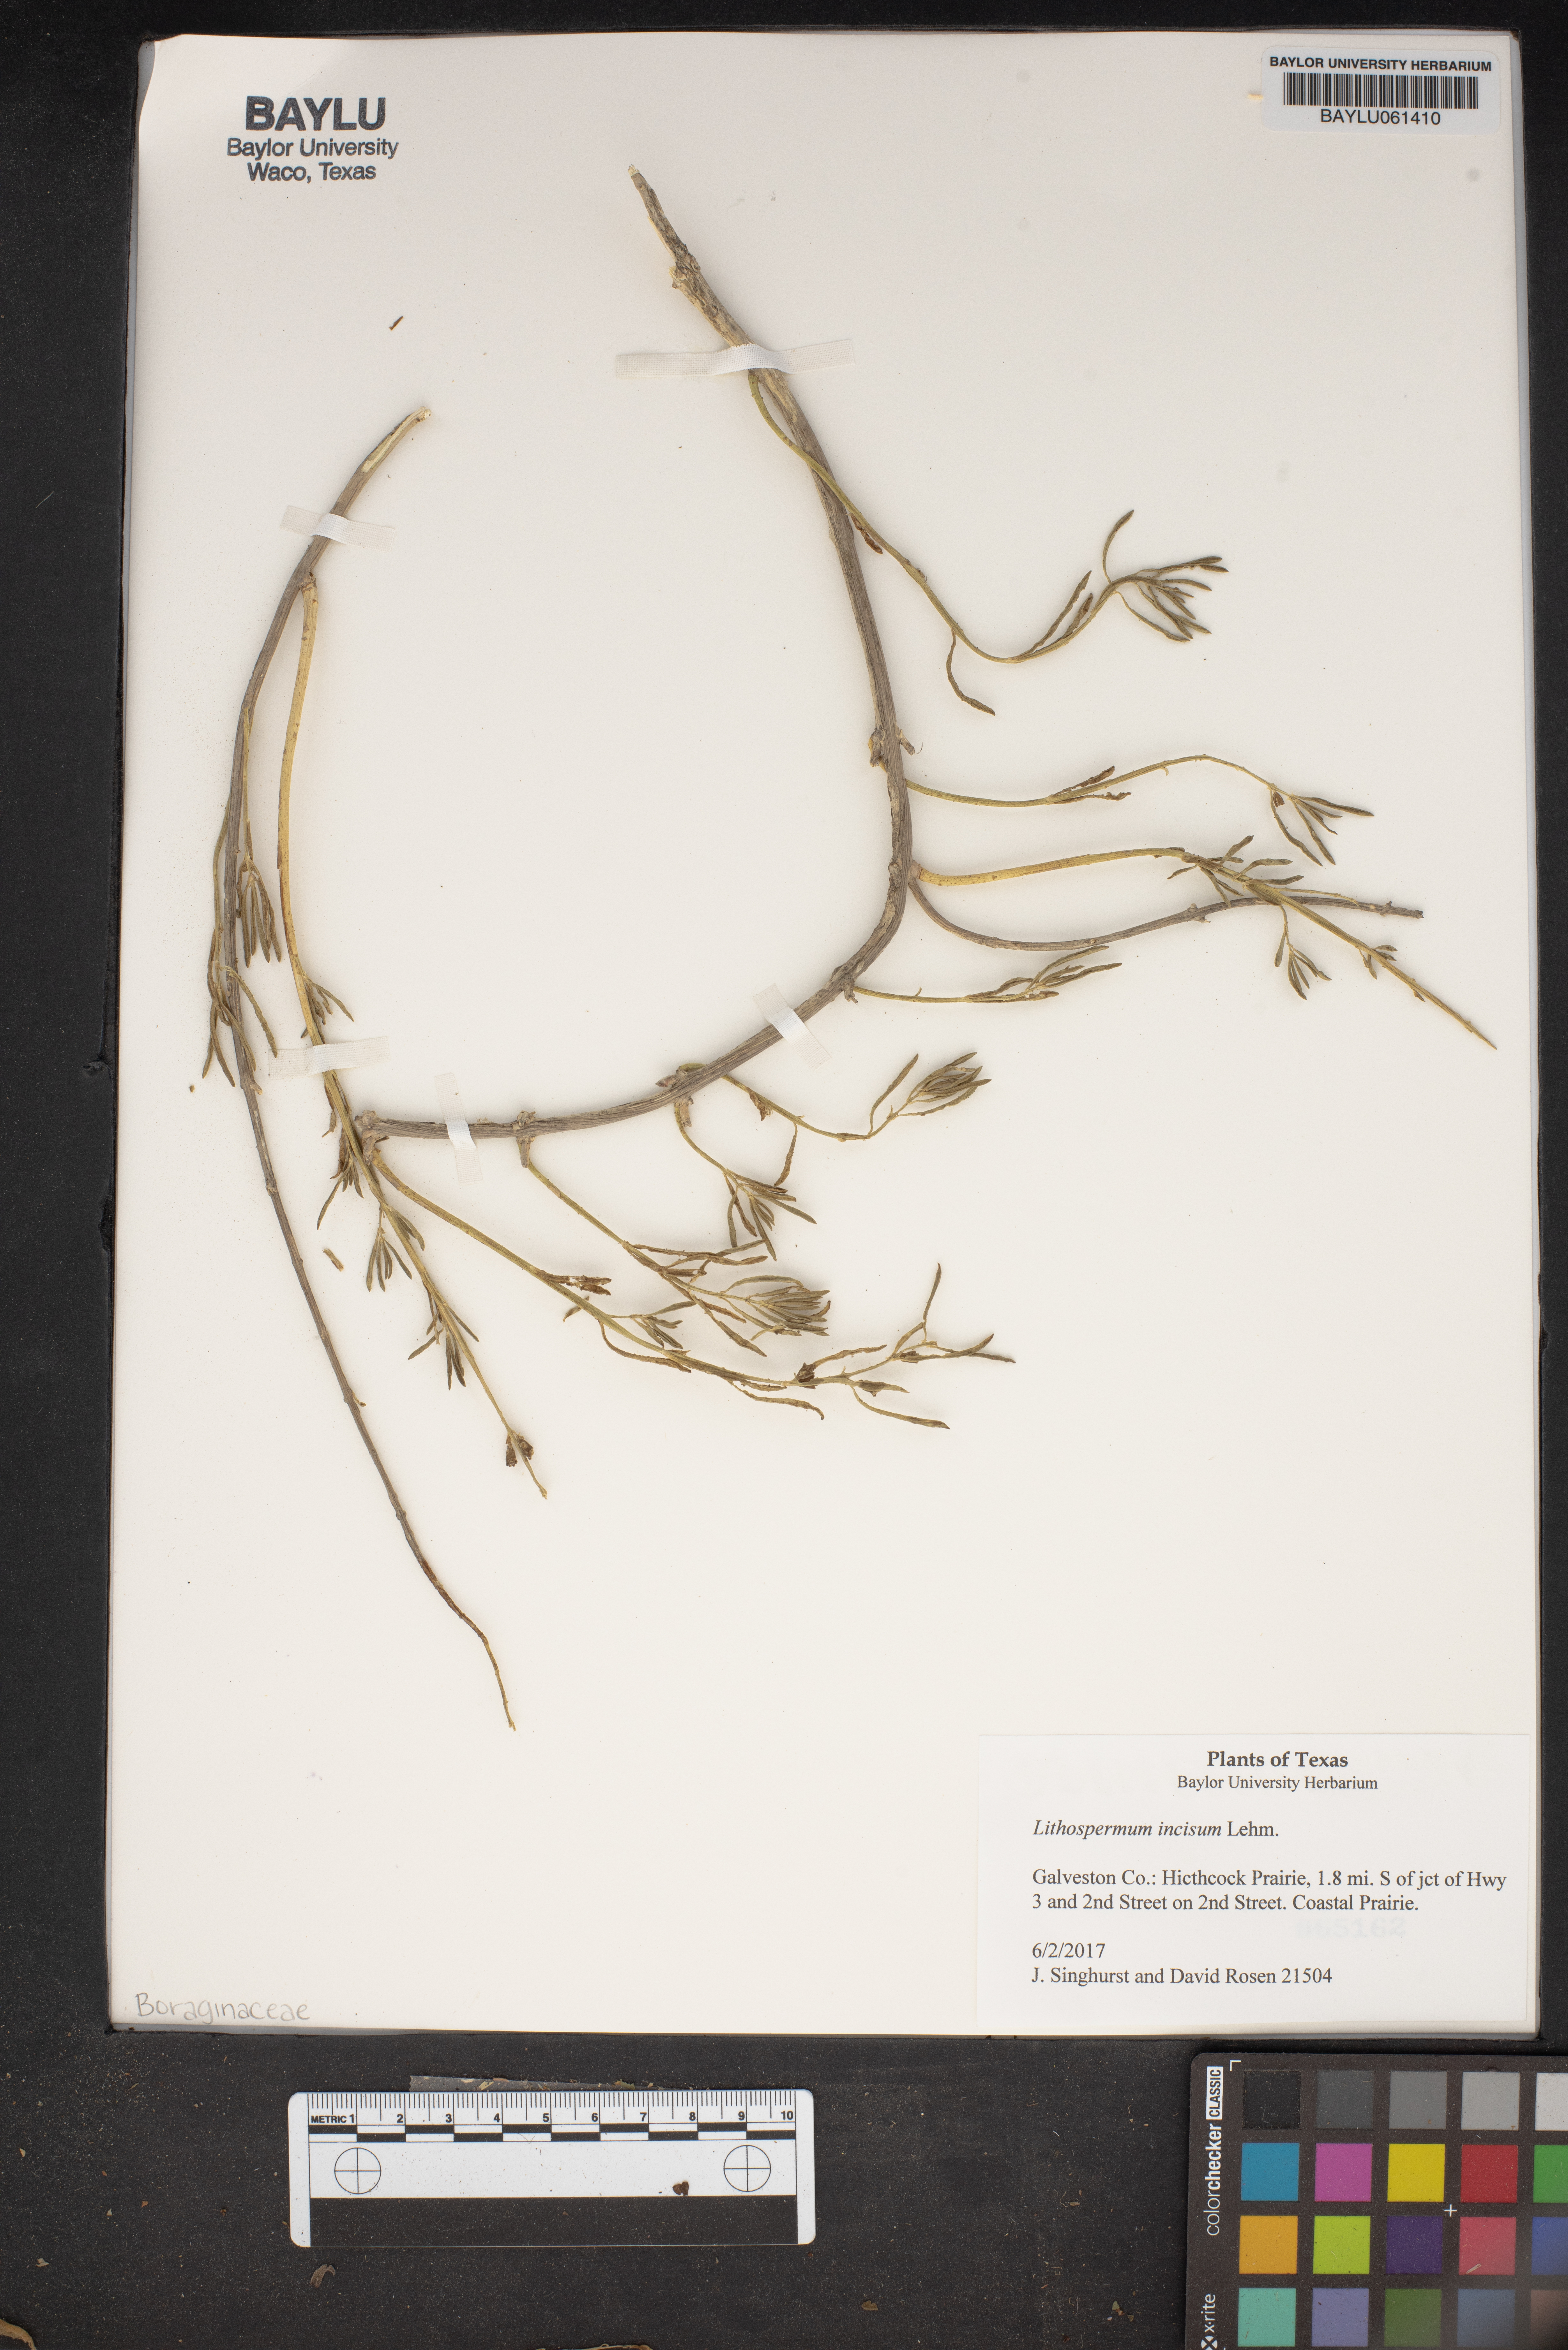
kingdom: Plantae
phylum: Tracheophyta
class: Magnoliopsida
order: Boraginales
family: Boraginaceae
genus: Lithospermum
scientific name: Lithospermum incisum
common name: Fringed gromwell
